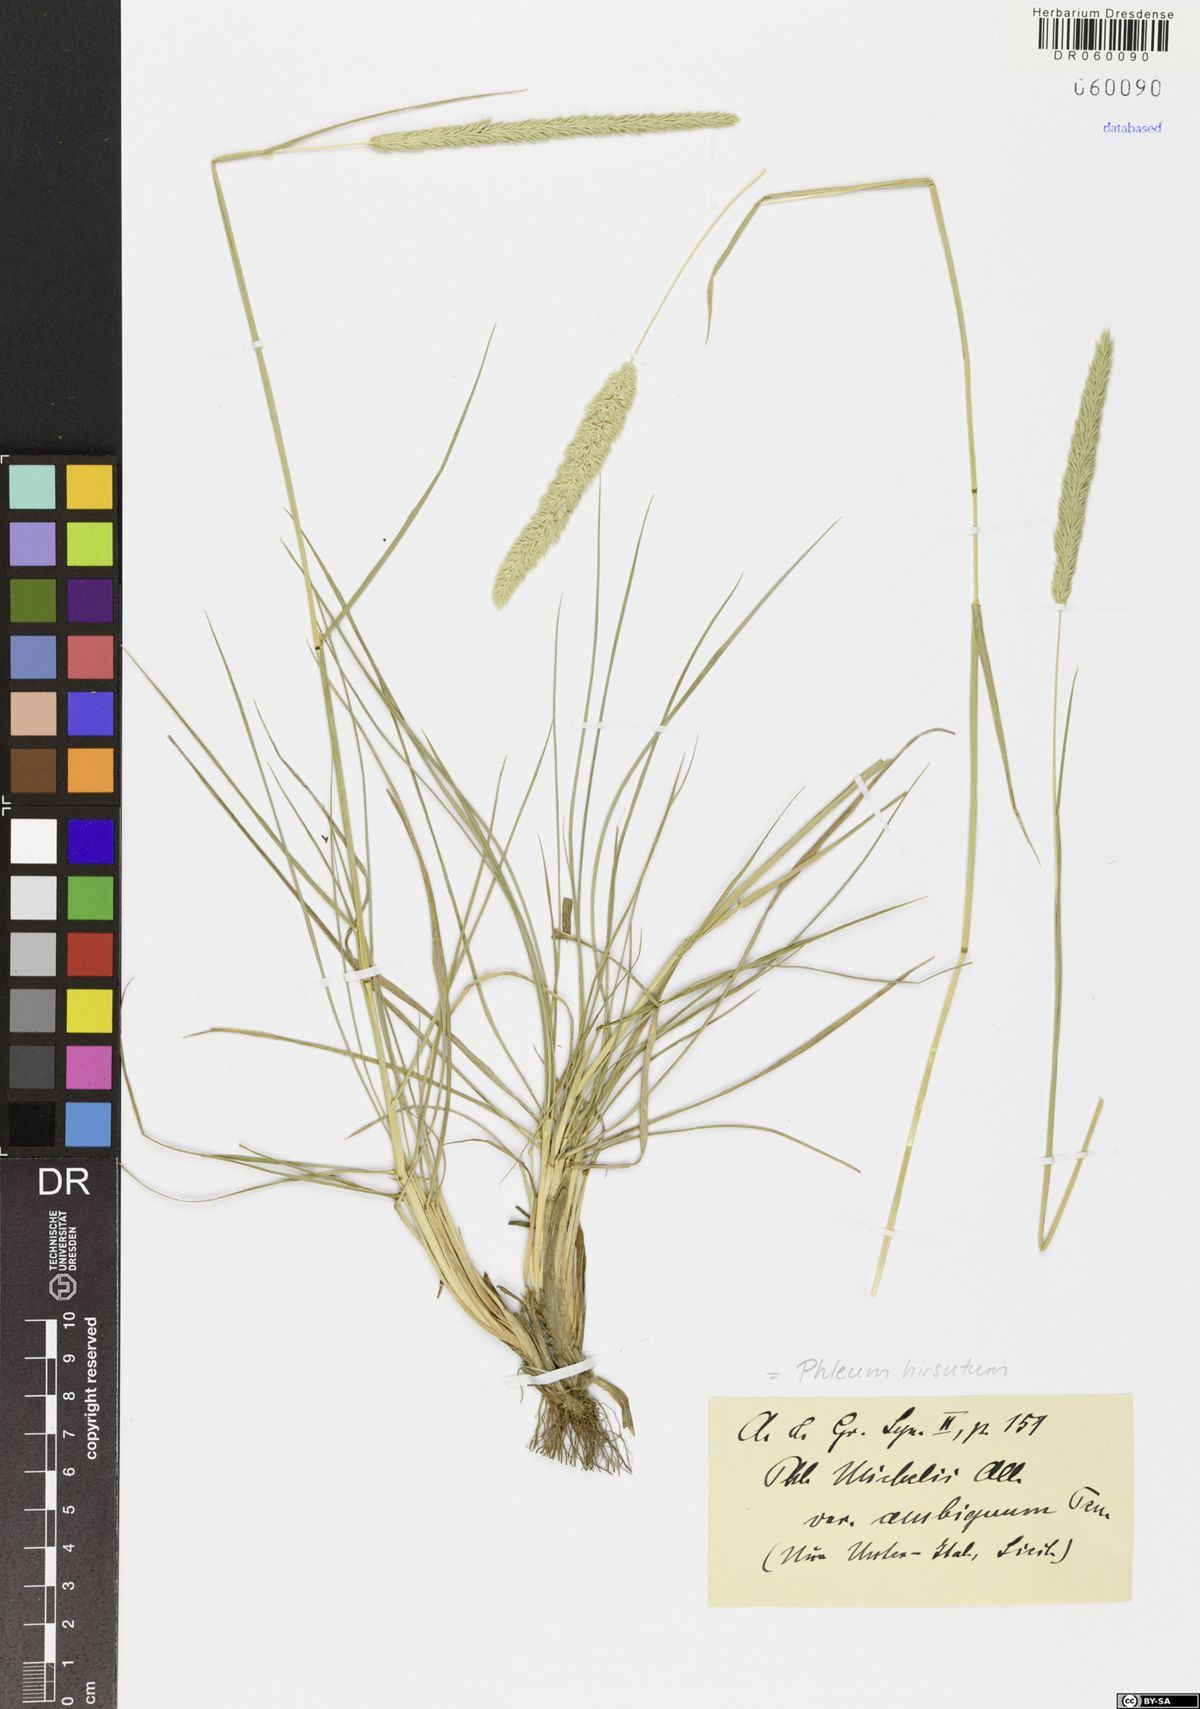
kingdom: Plantae
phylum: Tracheophyta
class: Liliopsida
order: Poales
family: Poaceae
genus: Phleum
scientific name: Phleum hirsutum
